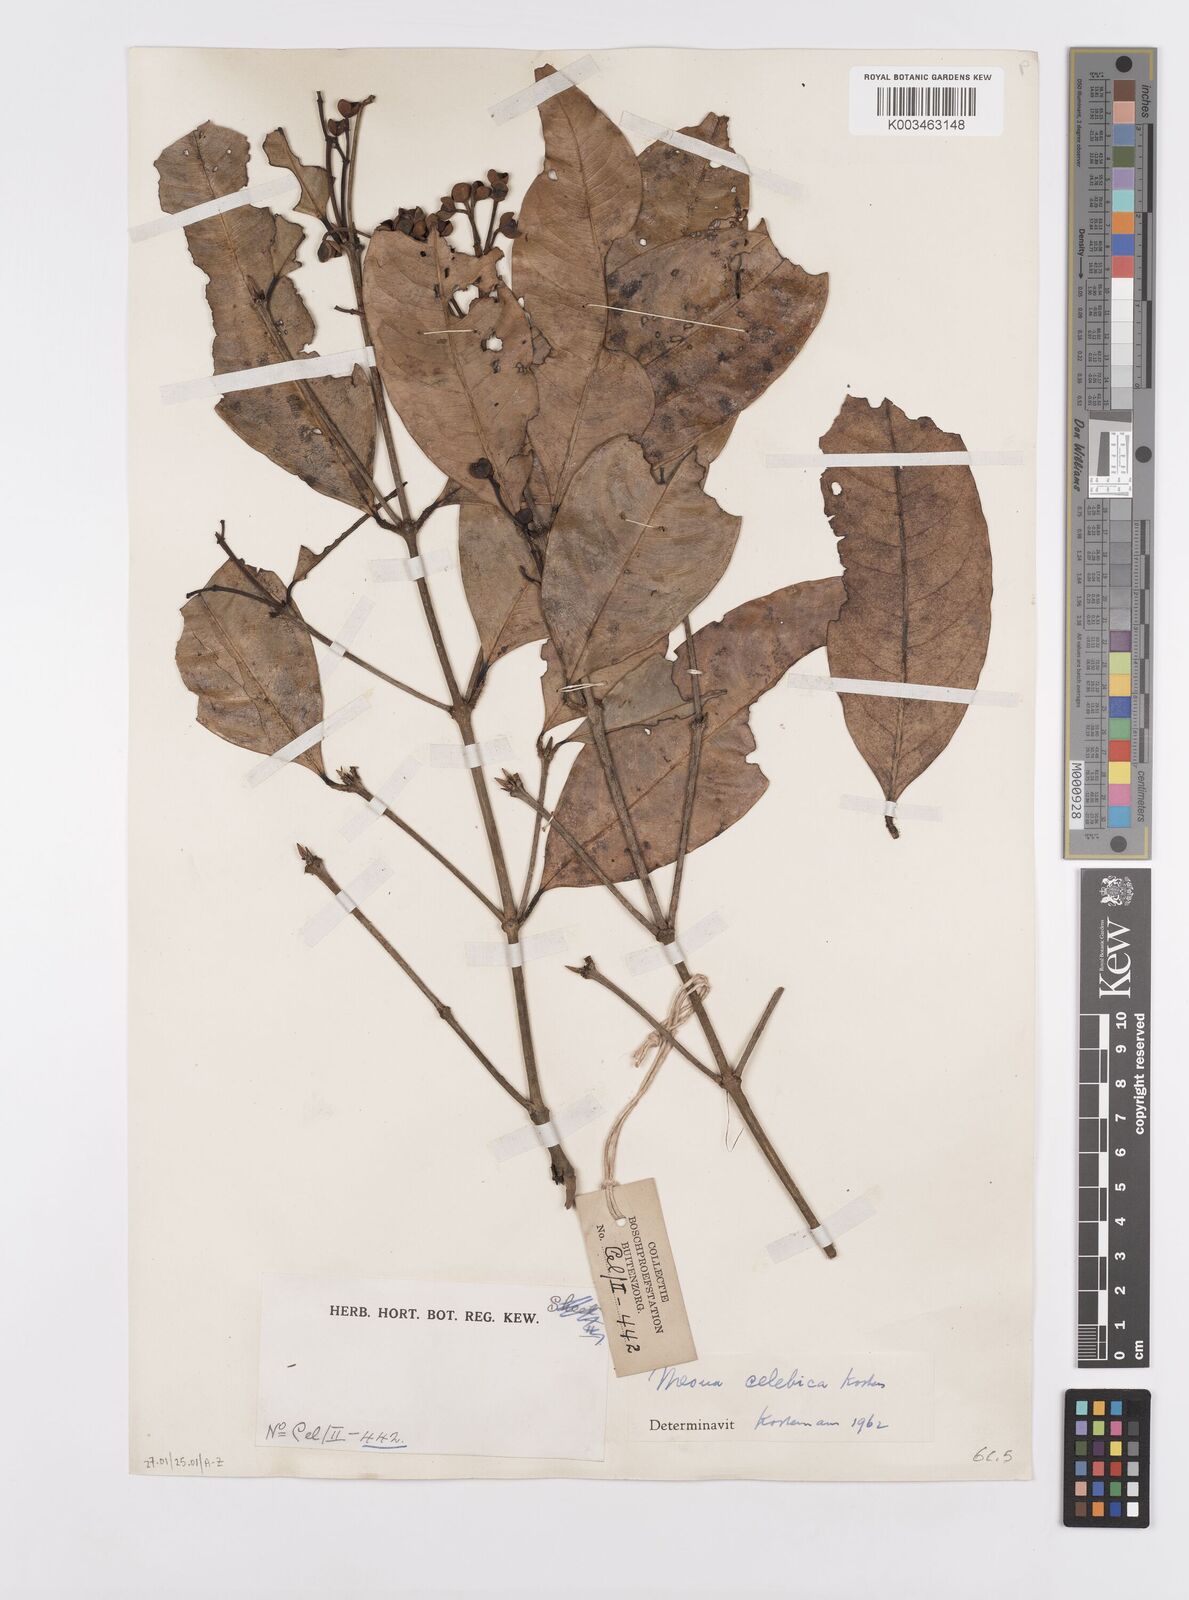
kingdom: Plantae
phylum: Tracheophyta
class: Magnoliopsida
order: Malpighiales
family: Calophyllaceae
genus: Kayea
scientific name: Kayea
